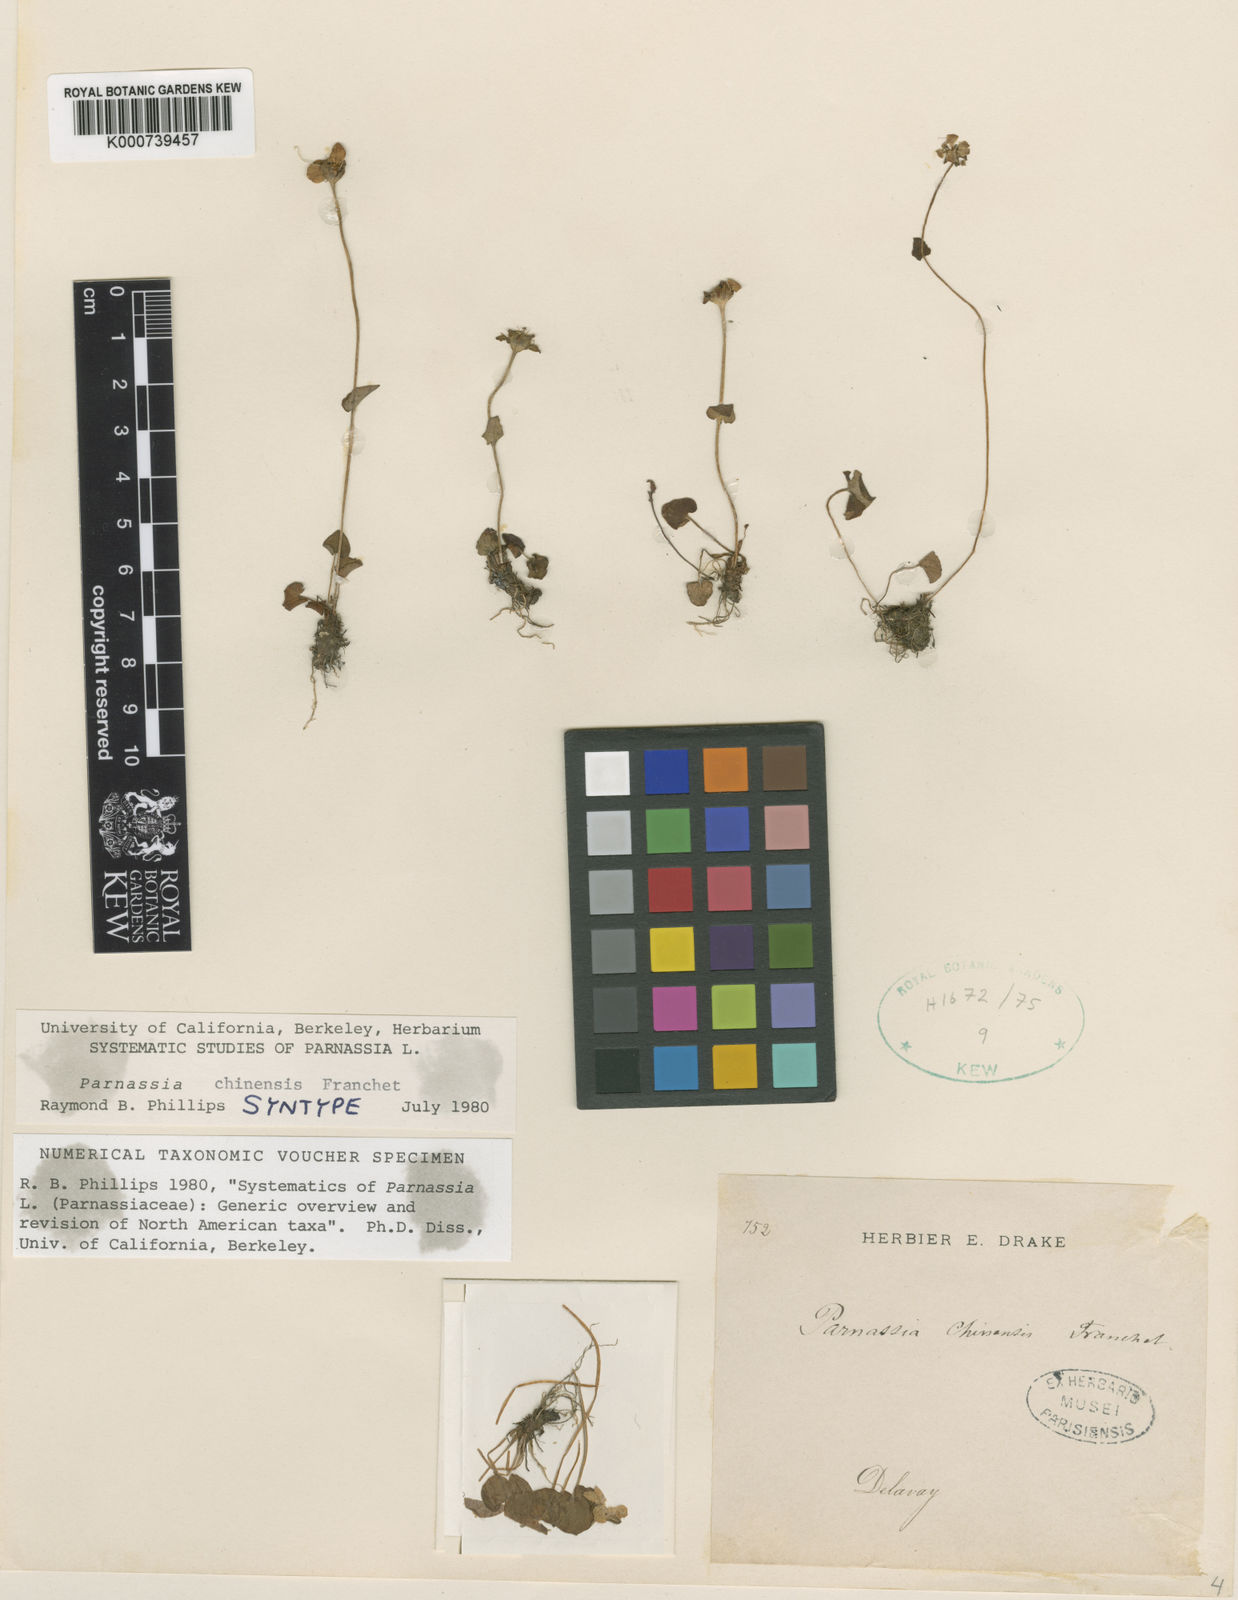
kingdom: Plantae
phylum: Tracheophyta
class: Magnoliopsida
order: Celastrales
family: Parnassiaceae
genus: Parnassia
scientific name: Parnassia chinensis
